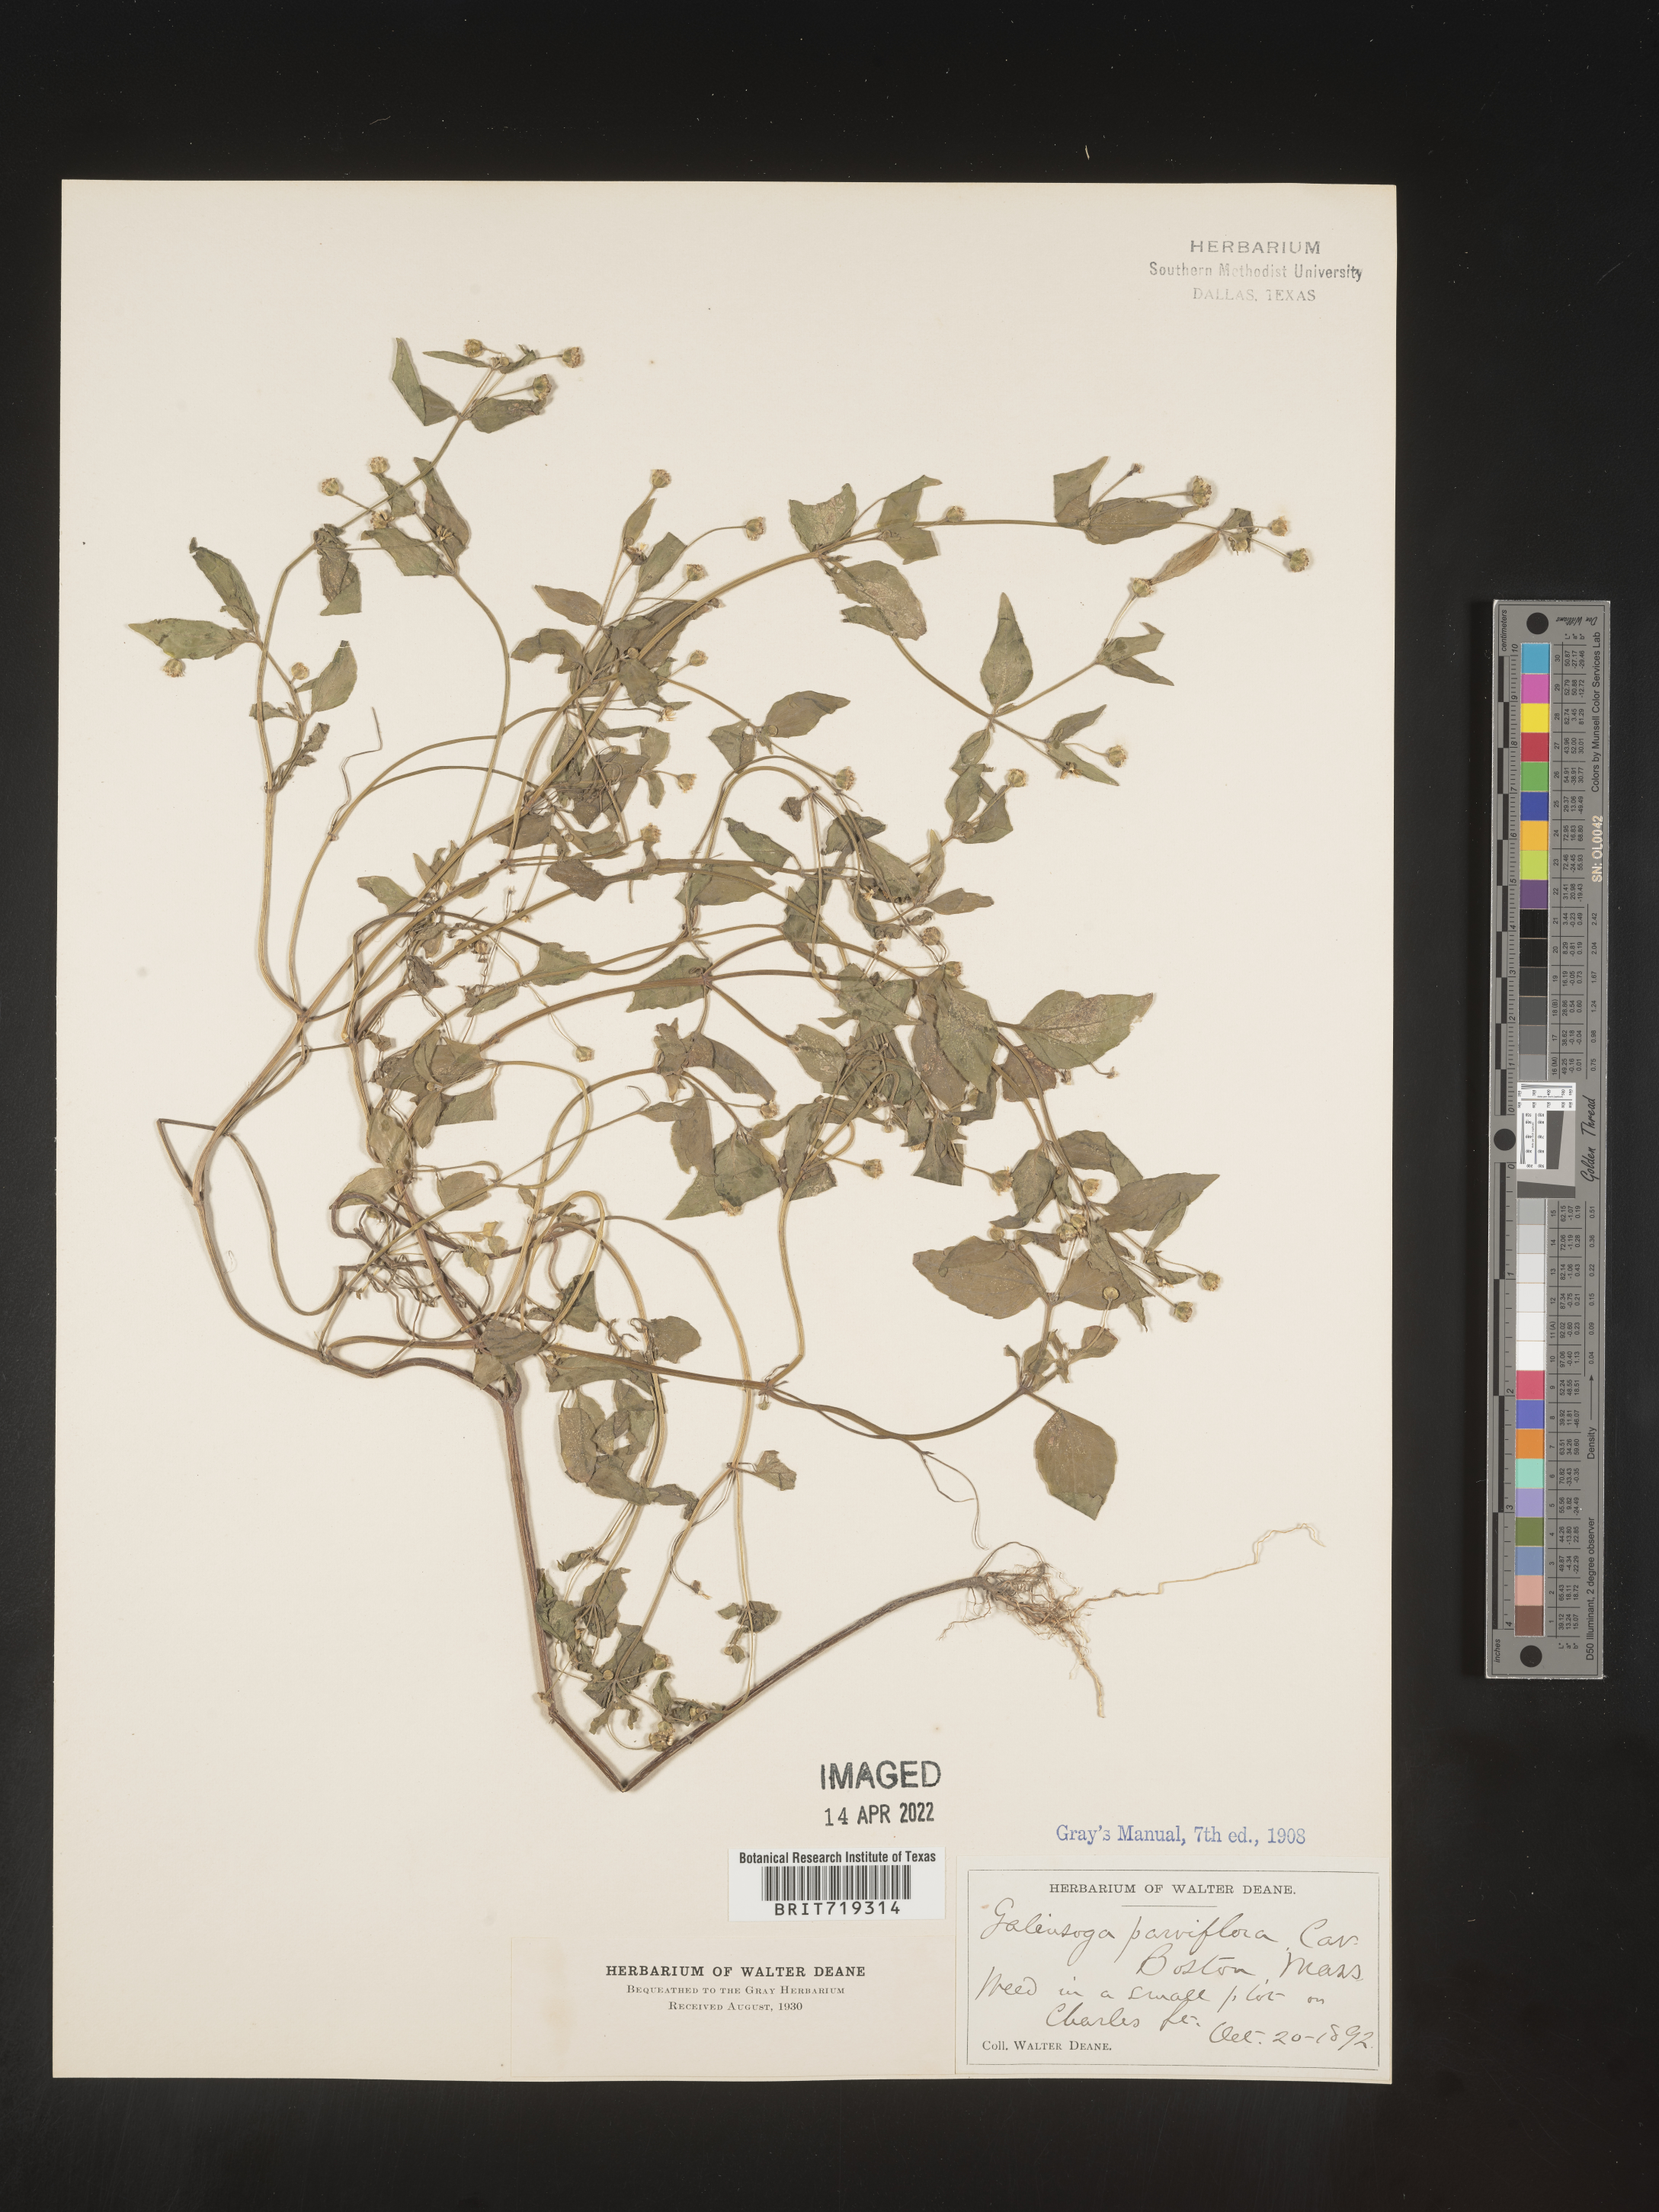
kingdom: Plantae
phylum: Tracheophyta
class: Magnoliopsida
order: Asterales
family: Asteraceae
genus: Galinsoga
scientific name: Galinsoga parviflora
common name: Gallant soldier
